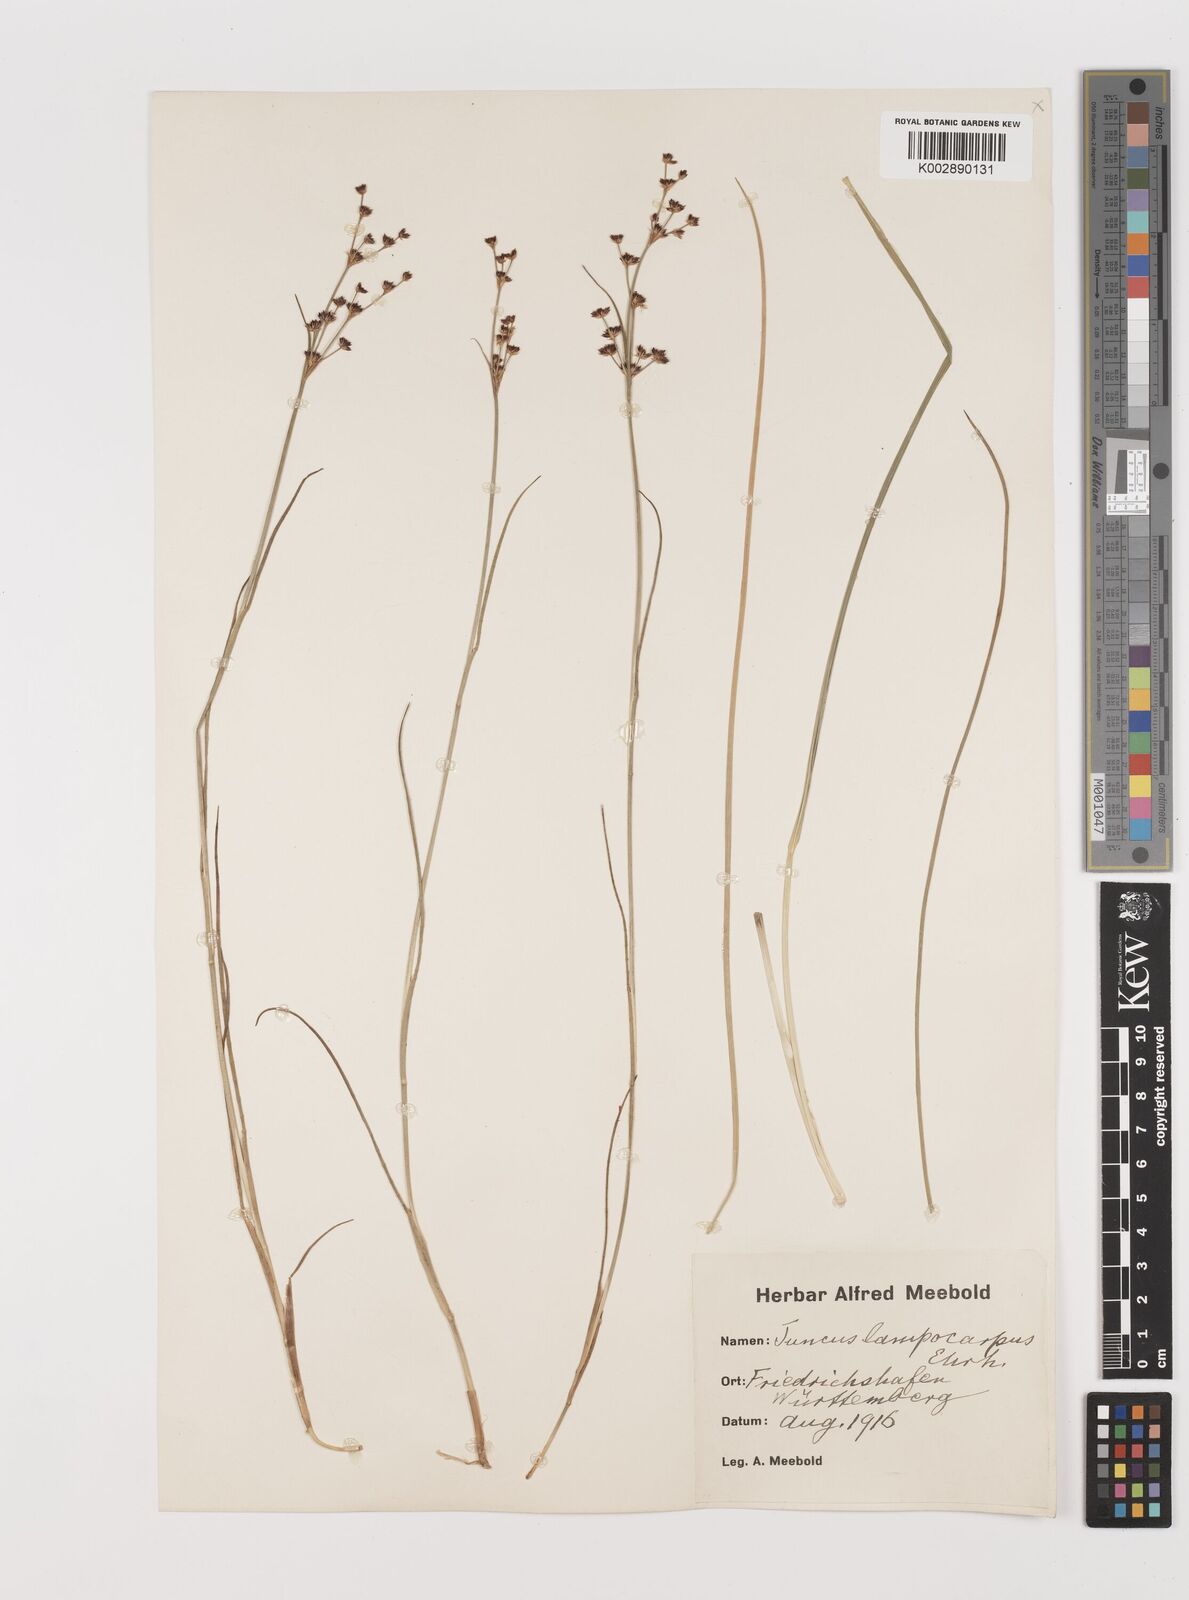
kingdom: Plantae
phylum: Tracheophyta
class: Liliopsida
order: Poales
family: Juncaceae
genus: Juncus
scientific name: Juncus articulatus
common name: Jointed rush
